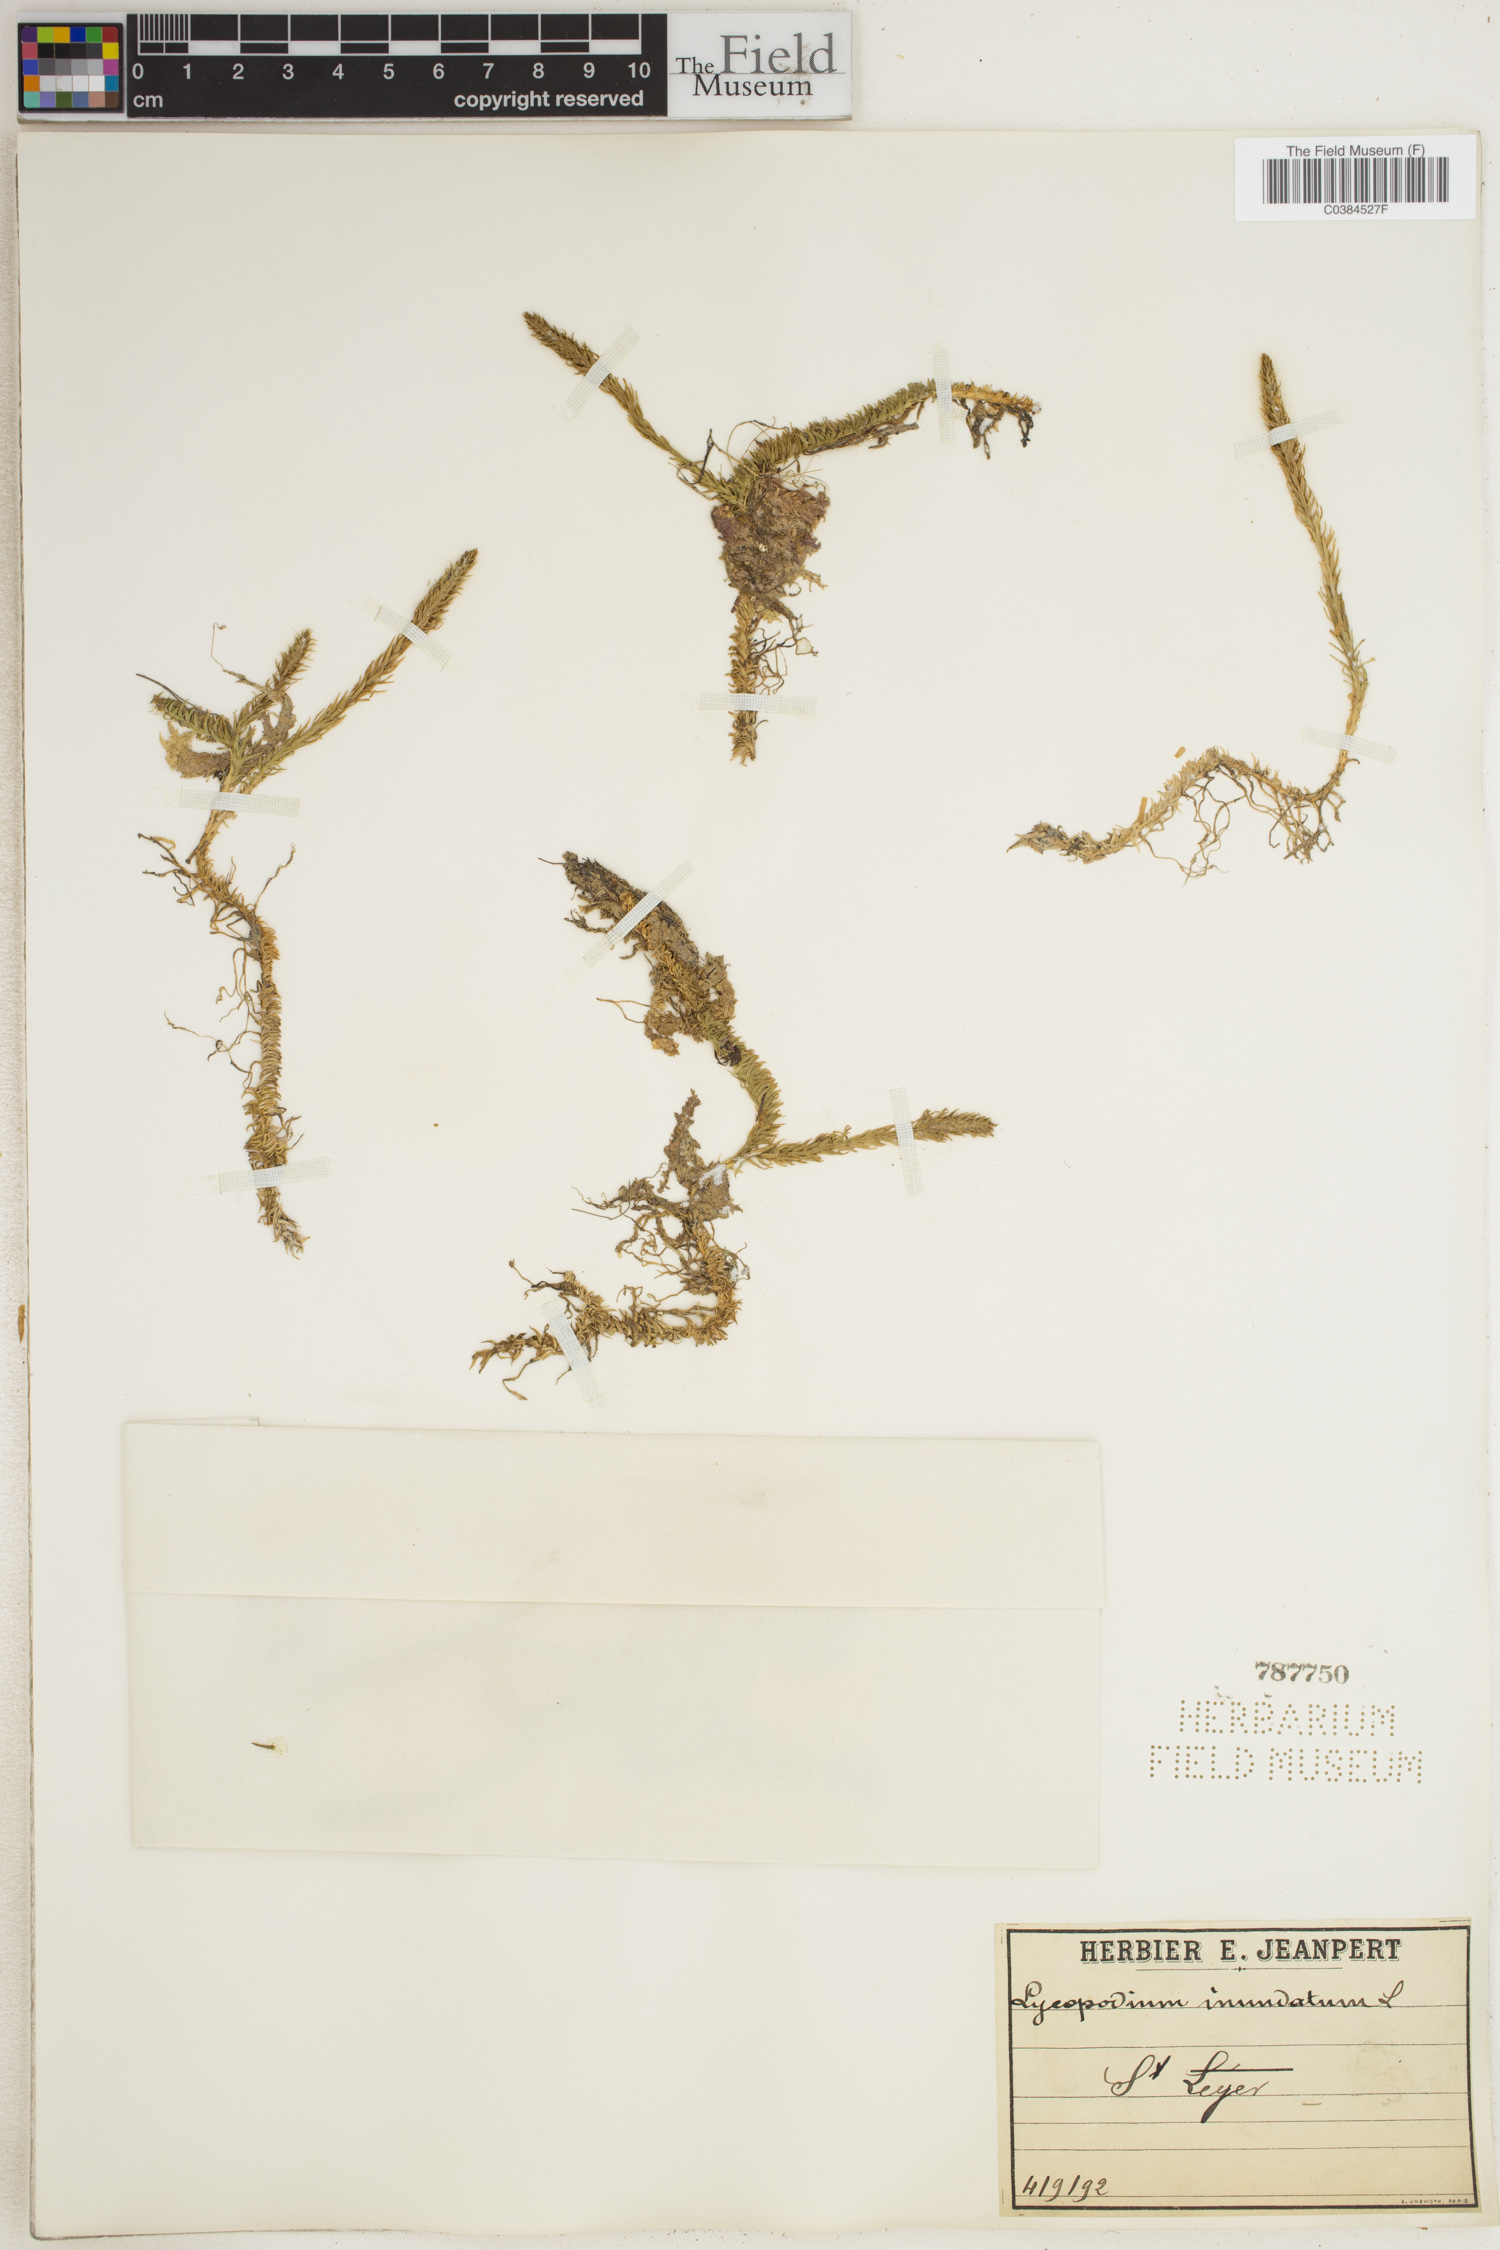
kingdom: Plantae
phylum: Tracheophyta
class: Lycopodiopsida
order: Lycopodiales
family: Lycopodiaceae
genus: Lycopodiella
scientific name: Lycopodiella inundata
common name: Marsh clubmoss
